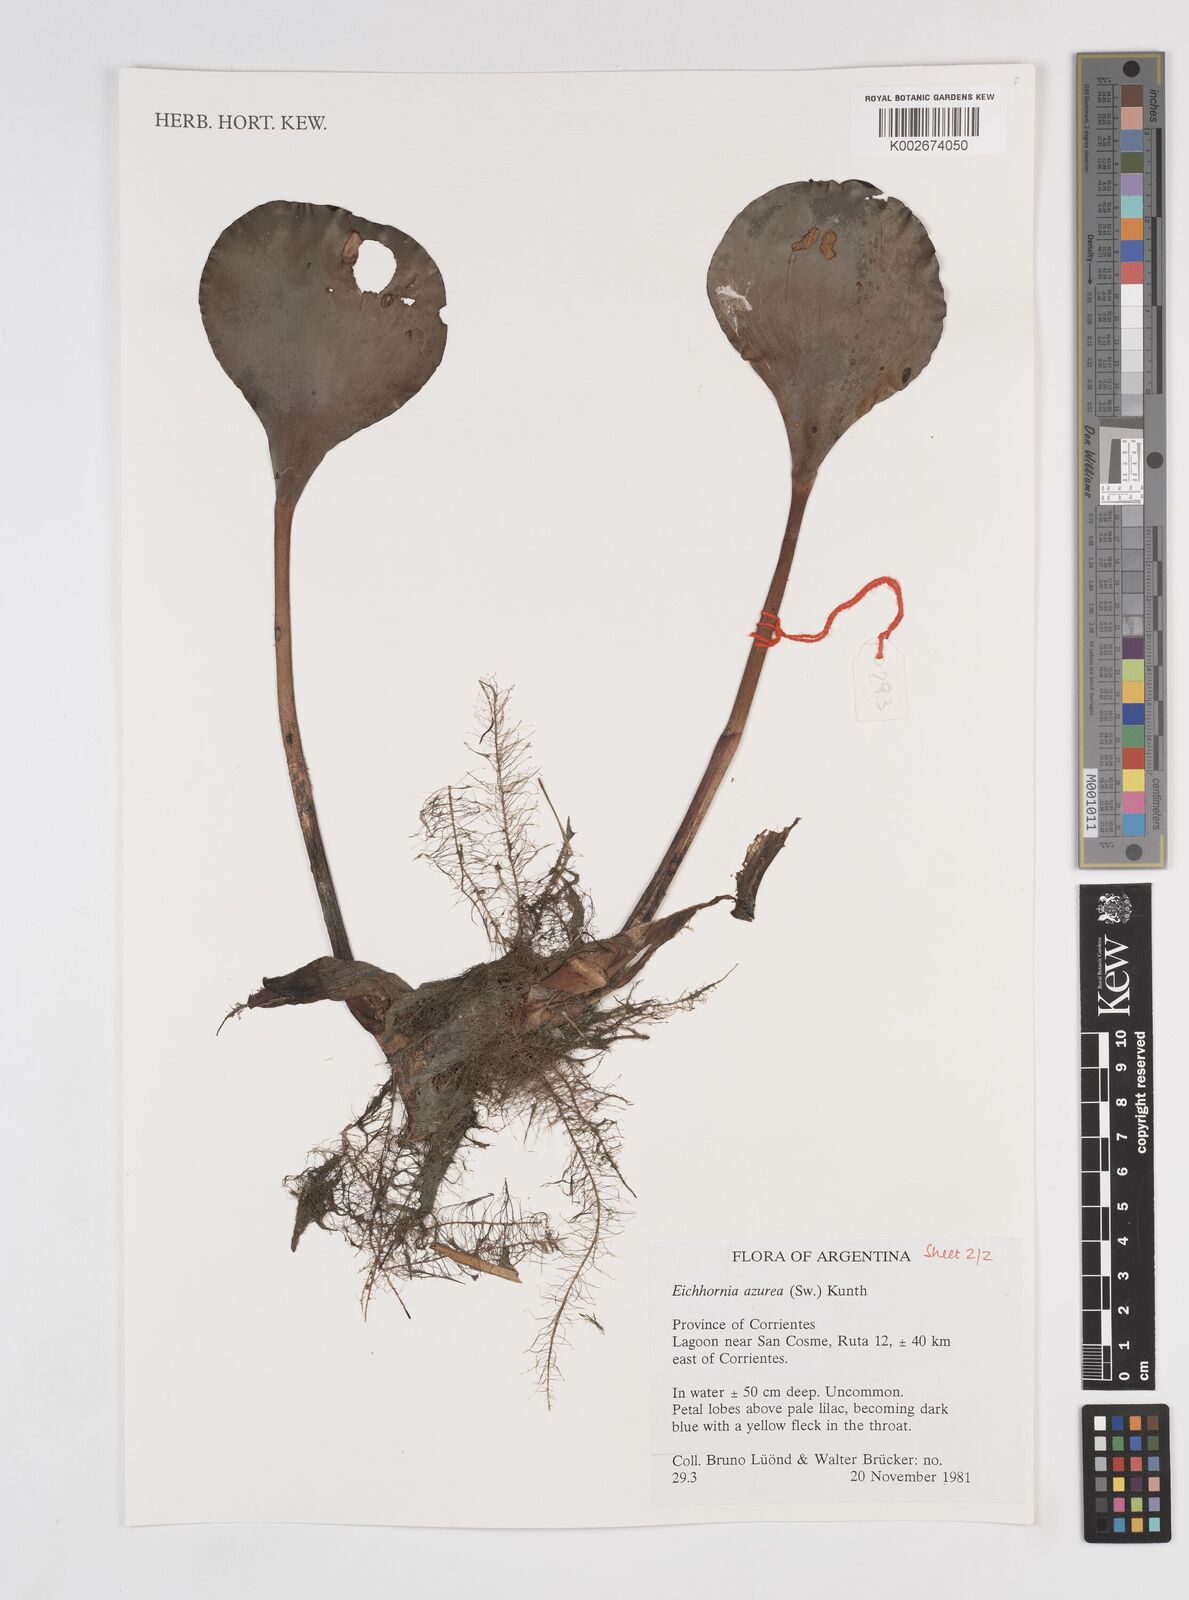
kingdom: Plantae
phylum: Tracheophyta
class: Liliopsida
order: Commelinales
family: Pontederiaceae
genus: Pontederia
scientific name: Pontederia azurea
